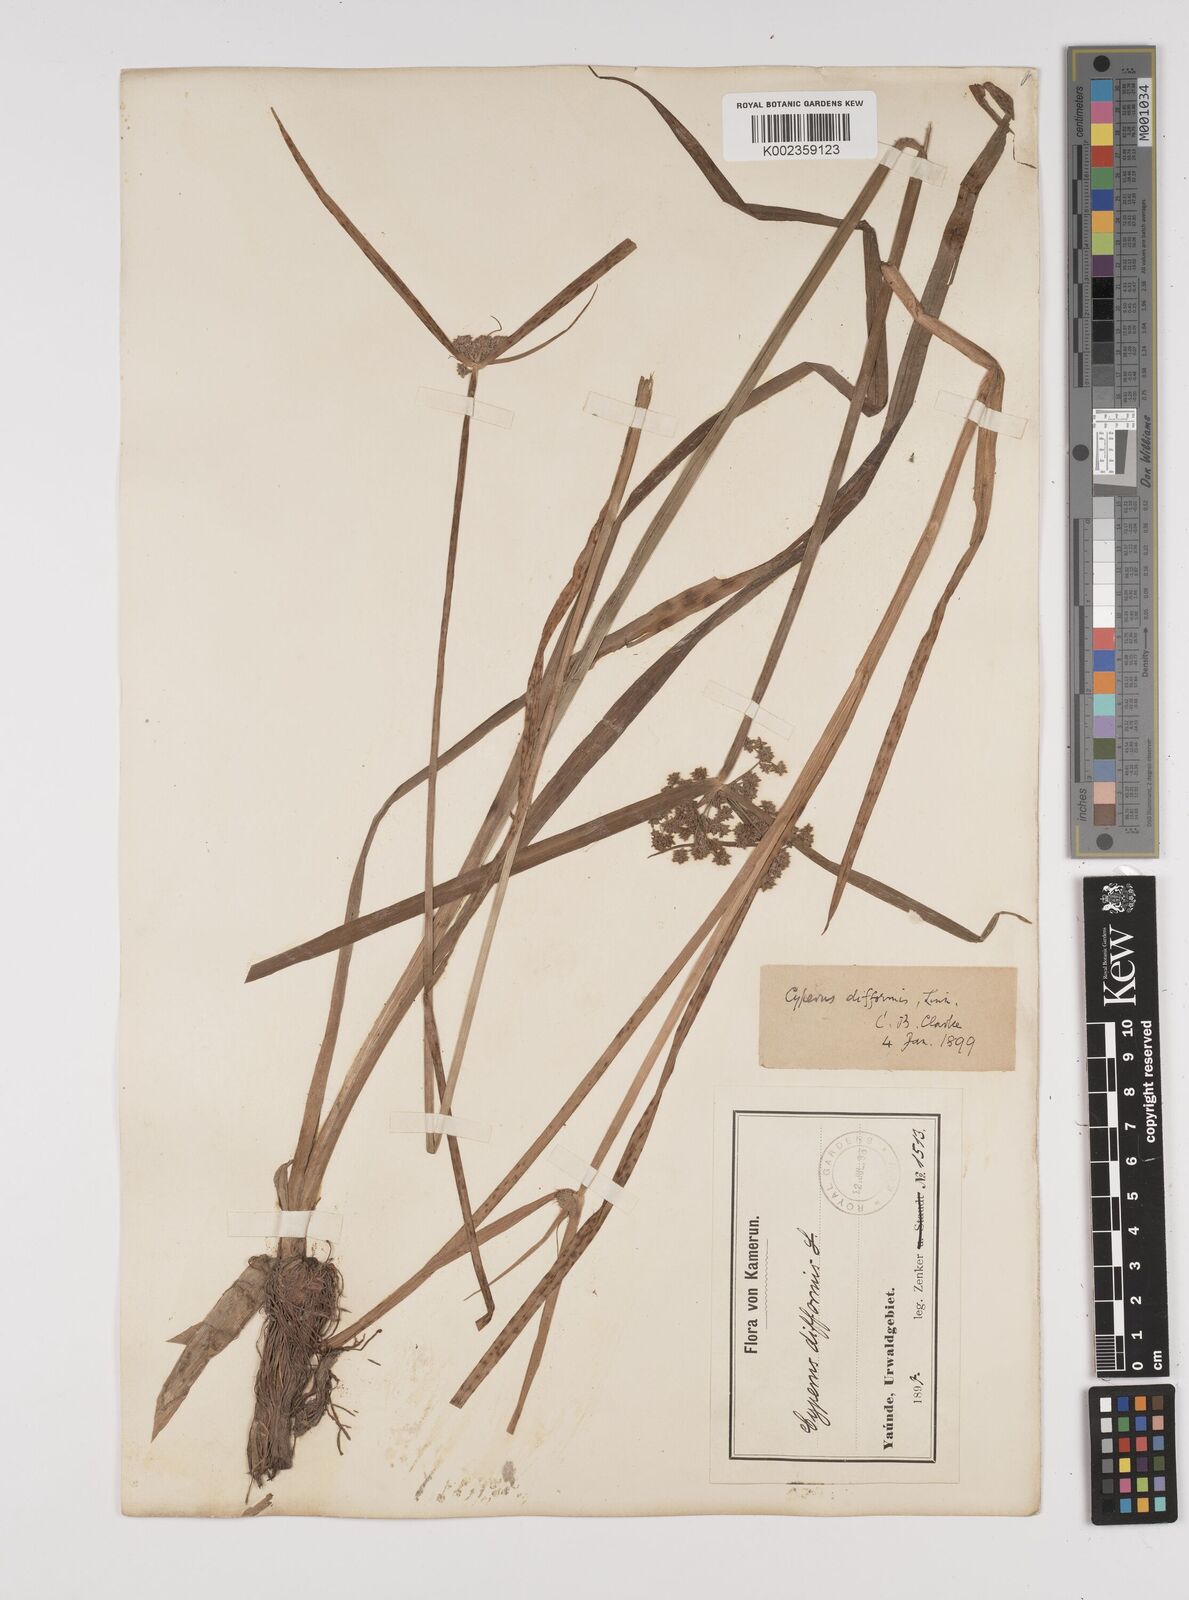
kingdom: Plantae
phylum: Tracheophyta
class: Liliopsida
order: Poales
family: Cyperaceae
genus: Cyperus
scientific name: Cyperus difformis
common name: Variable flatsedge
